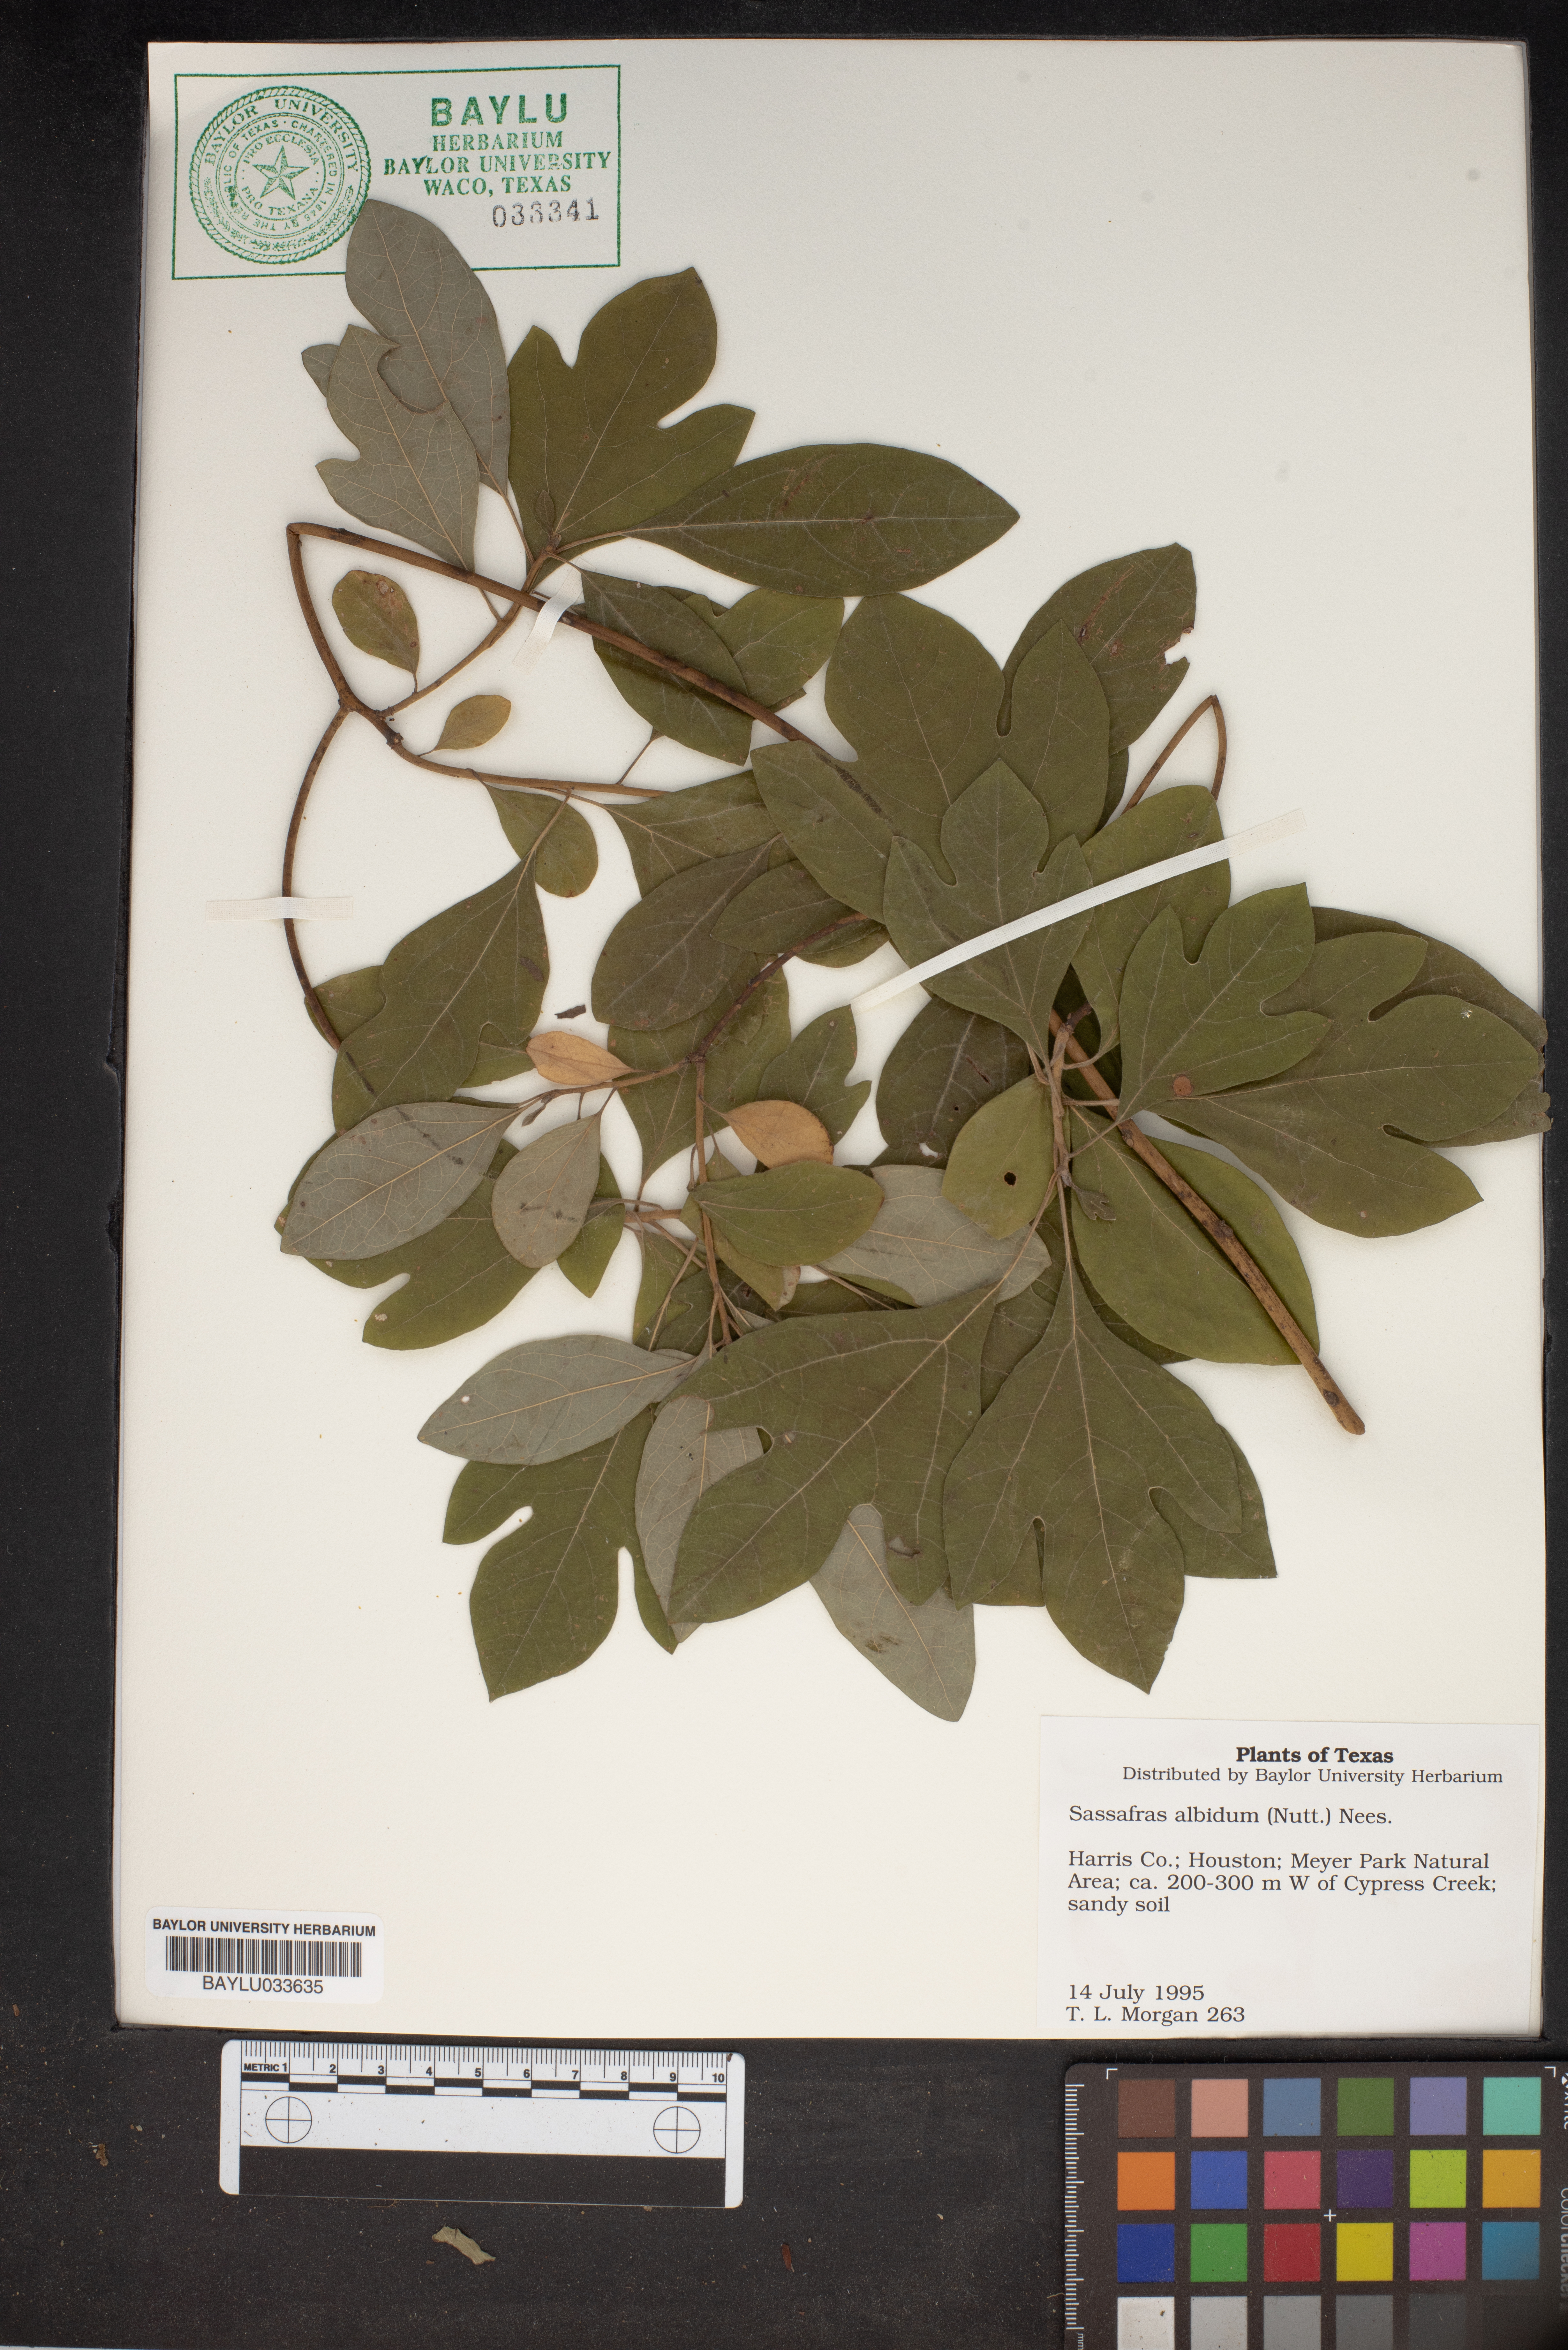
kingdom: Plantae
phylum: Tracheophyta
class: Magnoliopsida
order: Laurales
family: Lauraceae
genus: Sassafras
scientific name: Sassafras albidum
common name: Sassafras
